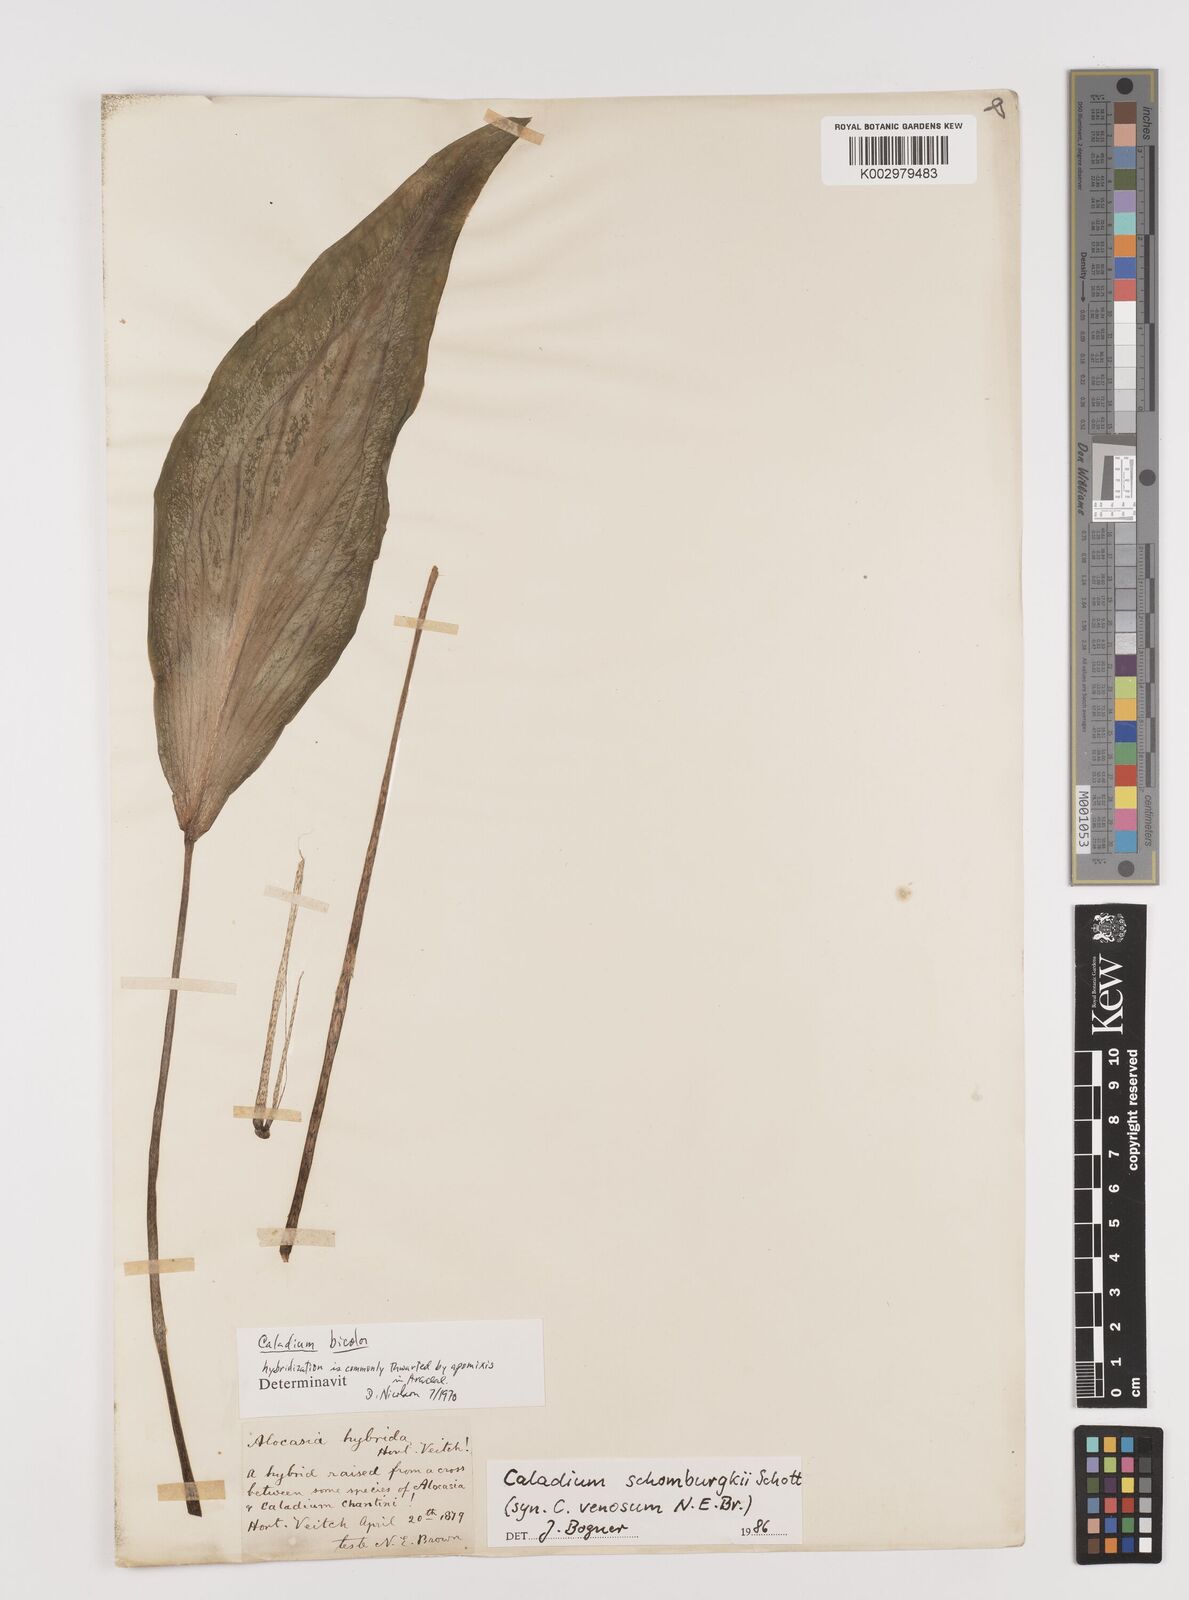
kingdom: Plantae
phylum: Tracheophyta
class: Liliopsida
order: Alismatales
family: Araceae
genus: Caladium
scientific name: Caladium schomburgkii
